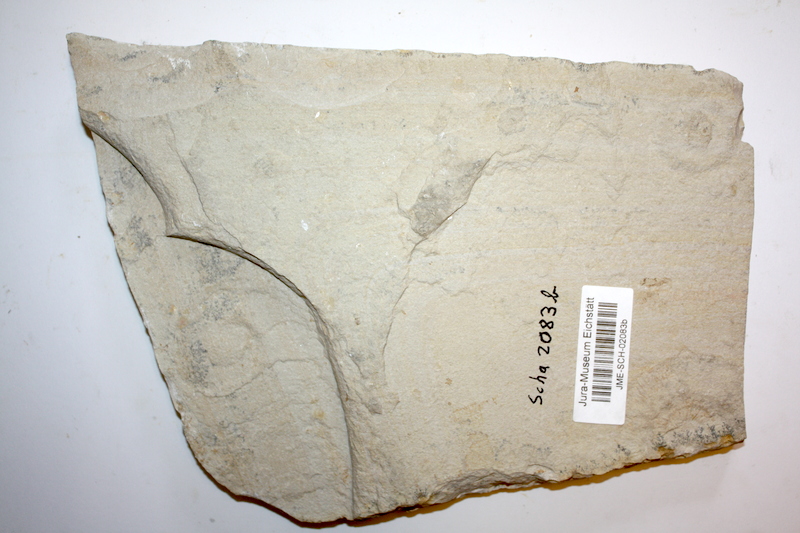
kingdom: Animalia
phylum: Chordata
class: Coelacanthi
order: Coelacanthiformes
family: Coelacanthidae
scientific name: Coelacanthidae
